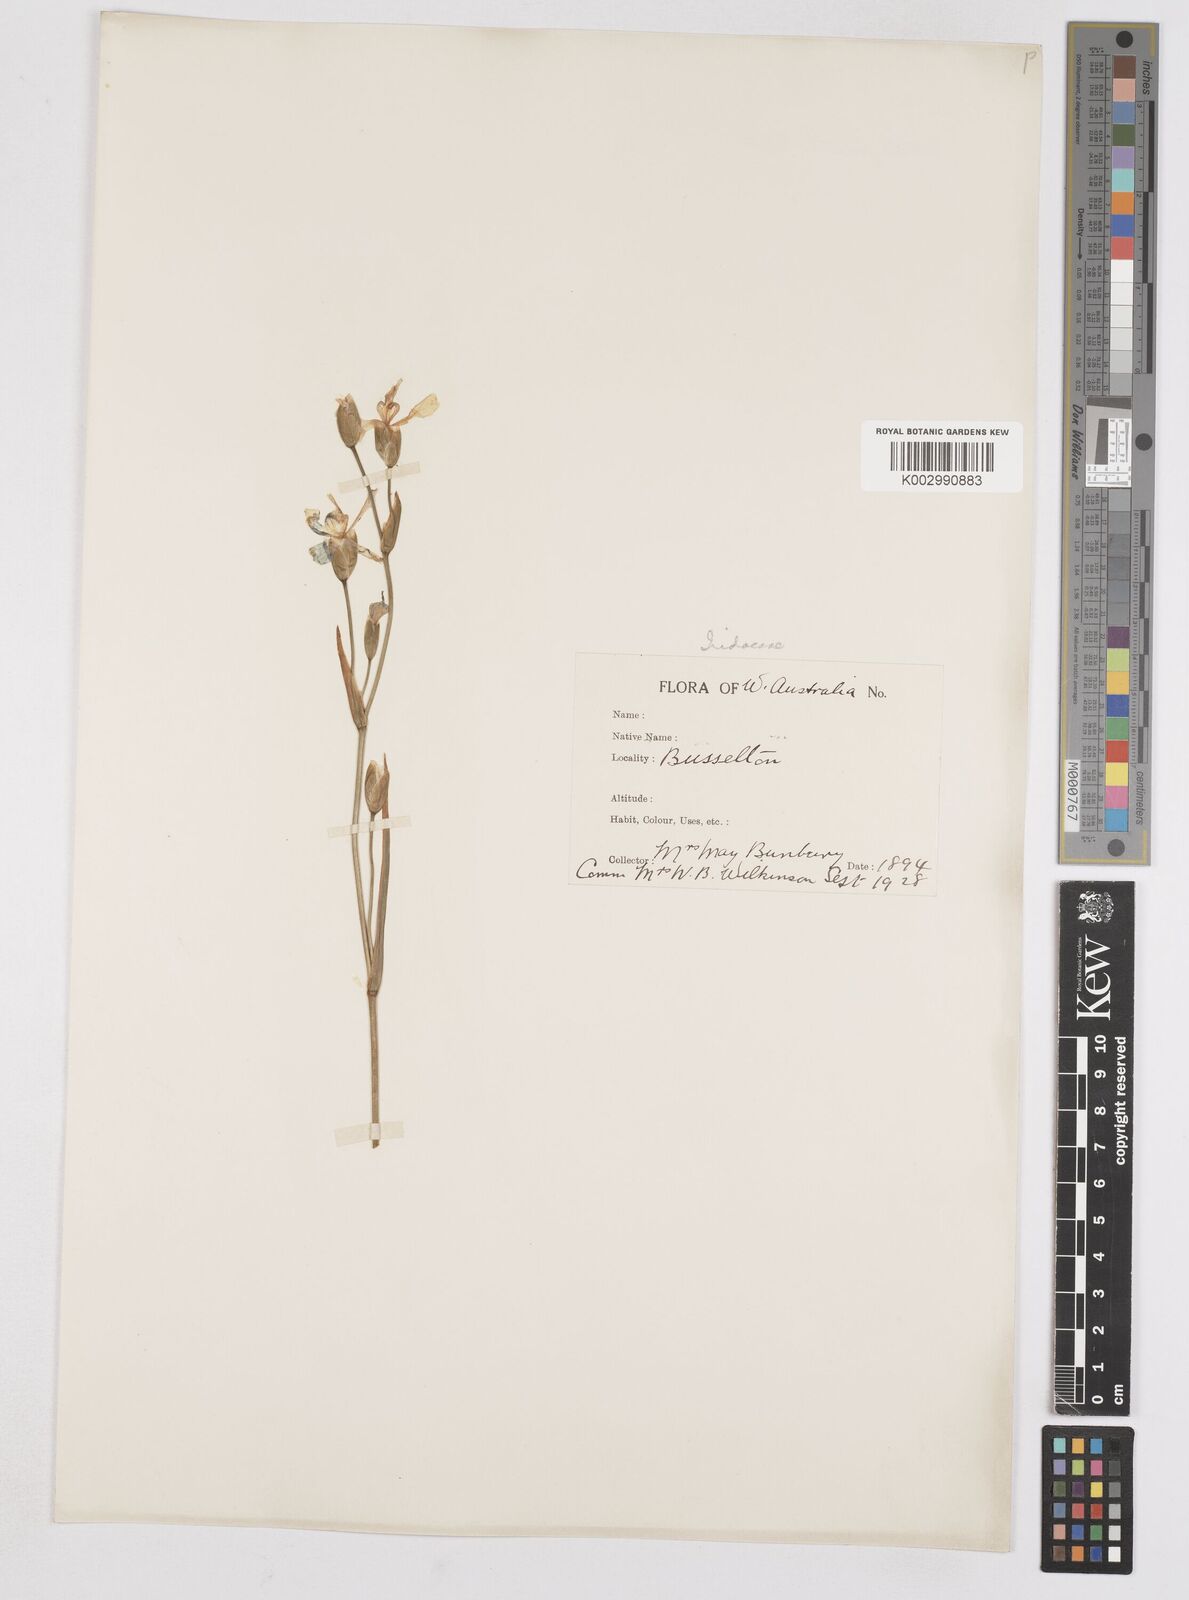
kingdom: Plantae
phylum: Tracheophyta
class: Liliopsida
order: Asparagales
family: Iridaceae
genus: Orthrosanthus
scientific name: Orthrosanthus multiflorus
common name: Morning-flag
